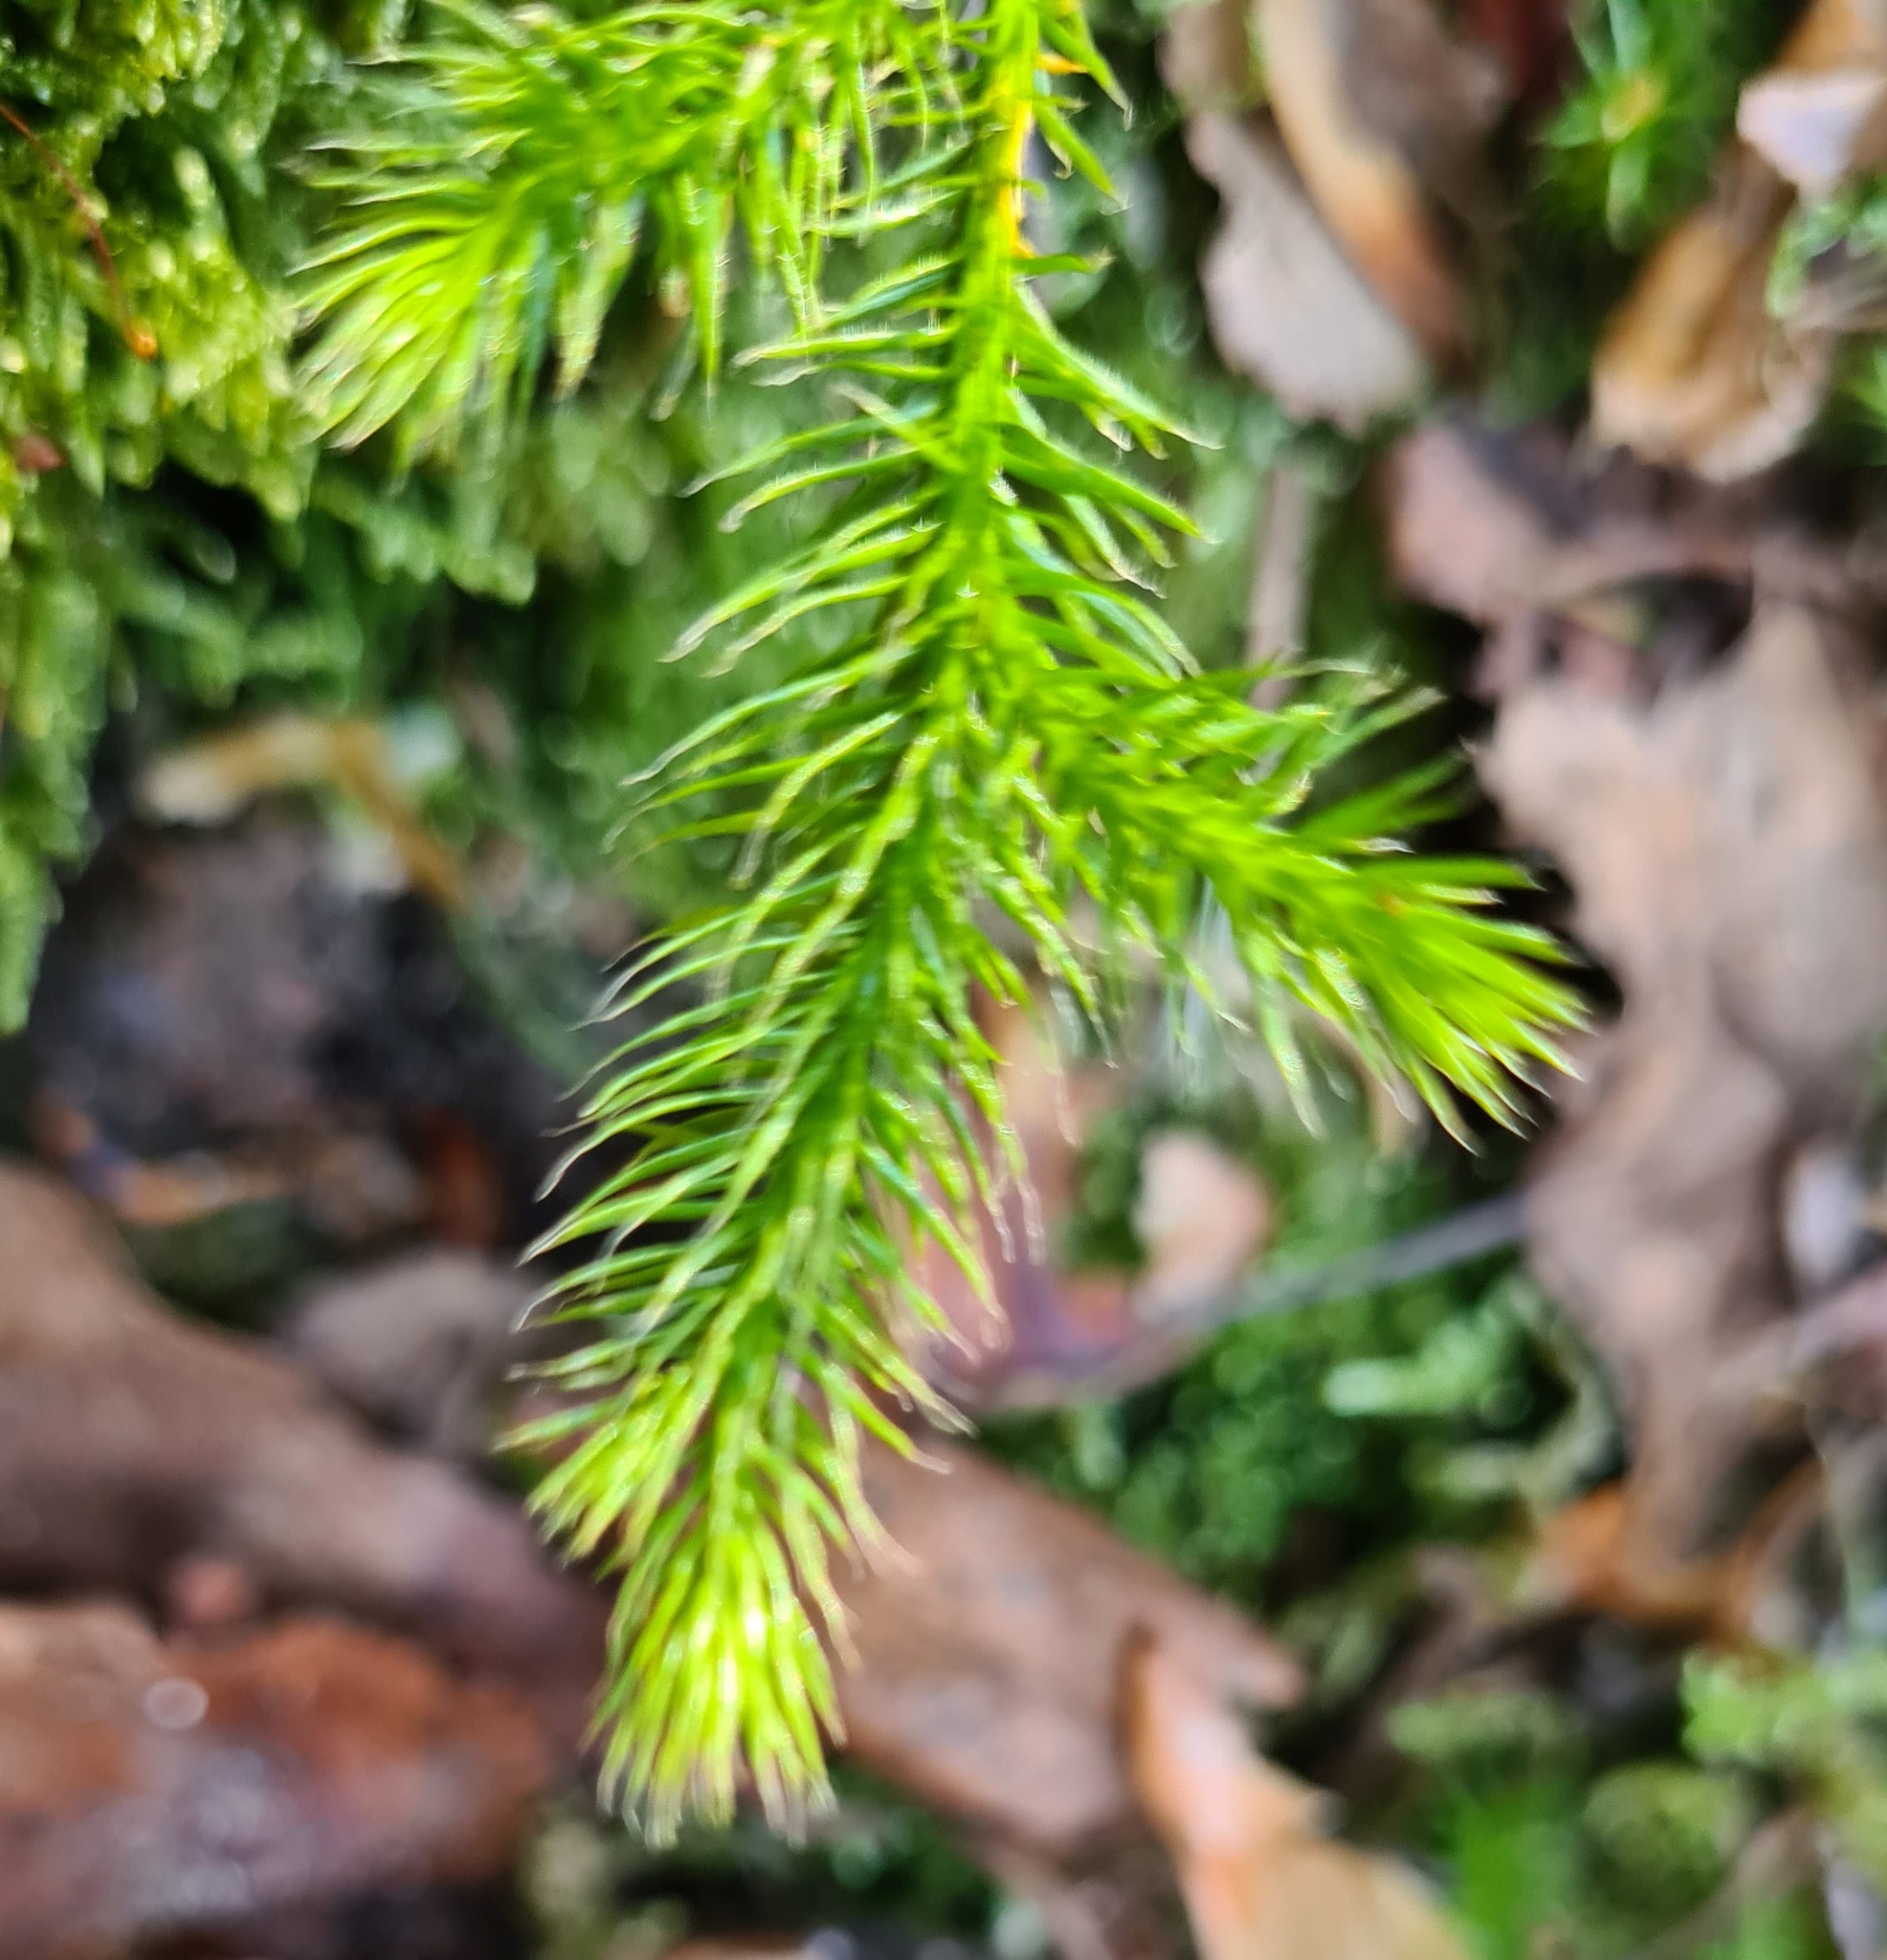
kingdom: Plantae
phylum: Tracheophyta
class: Lycopodiopsida
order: Lycopodiales
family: Lycopodiaceae
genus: Lycopodium
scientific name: Lycopodium clavatum
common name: Almindelig ulvefod
